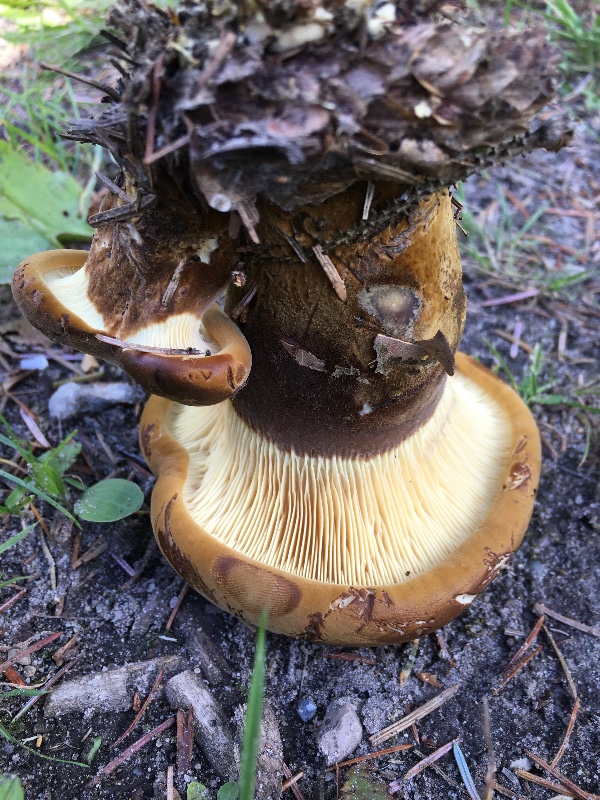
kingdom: Fungi
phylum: Basidiomycota
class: Agaricomycetes
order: Boletales
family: Tapinellaceae
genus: Tapinella
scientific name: Tapinella atrotomentosa
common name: sortfiltet viftesvamp
